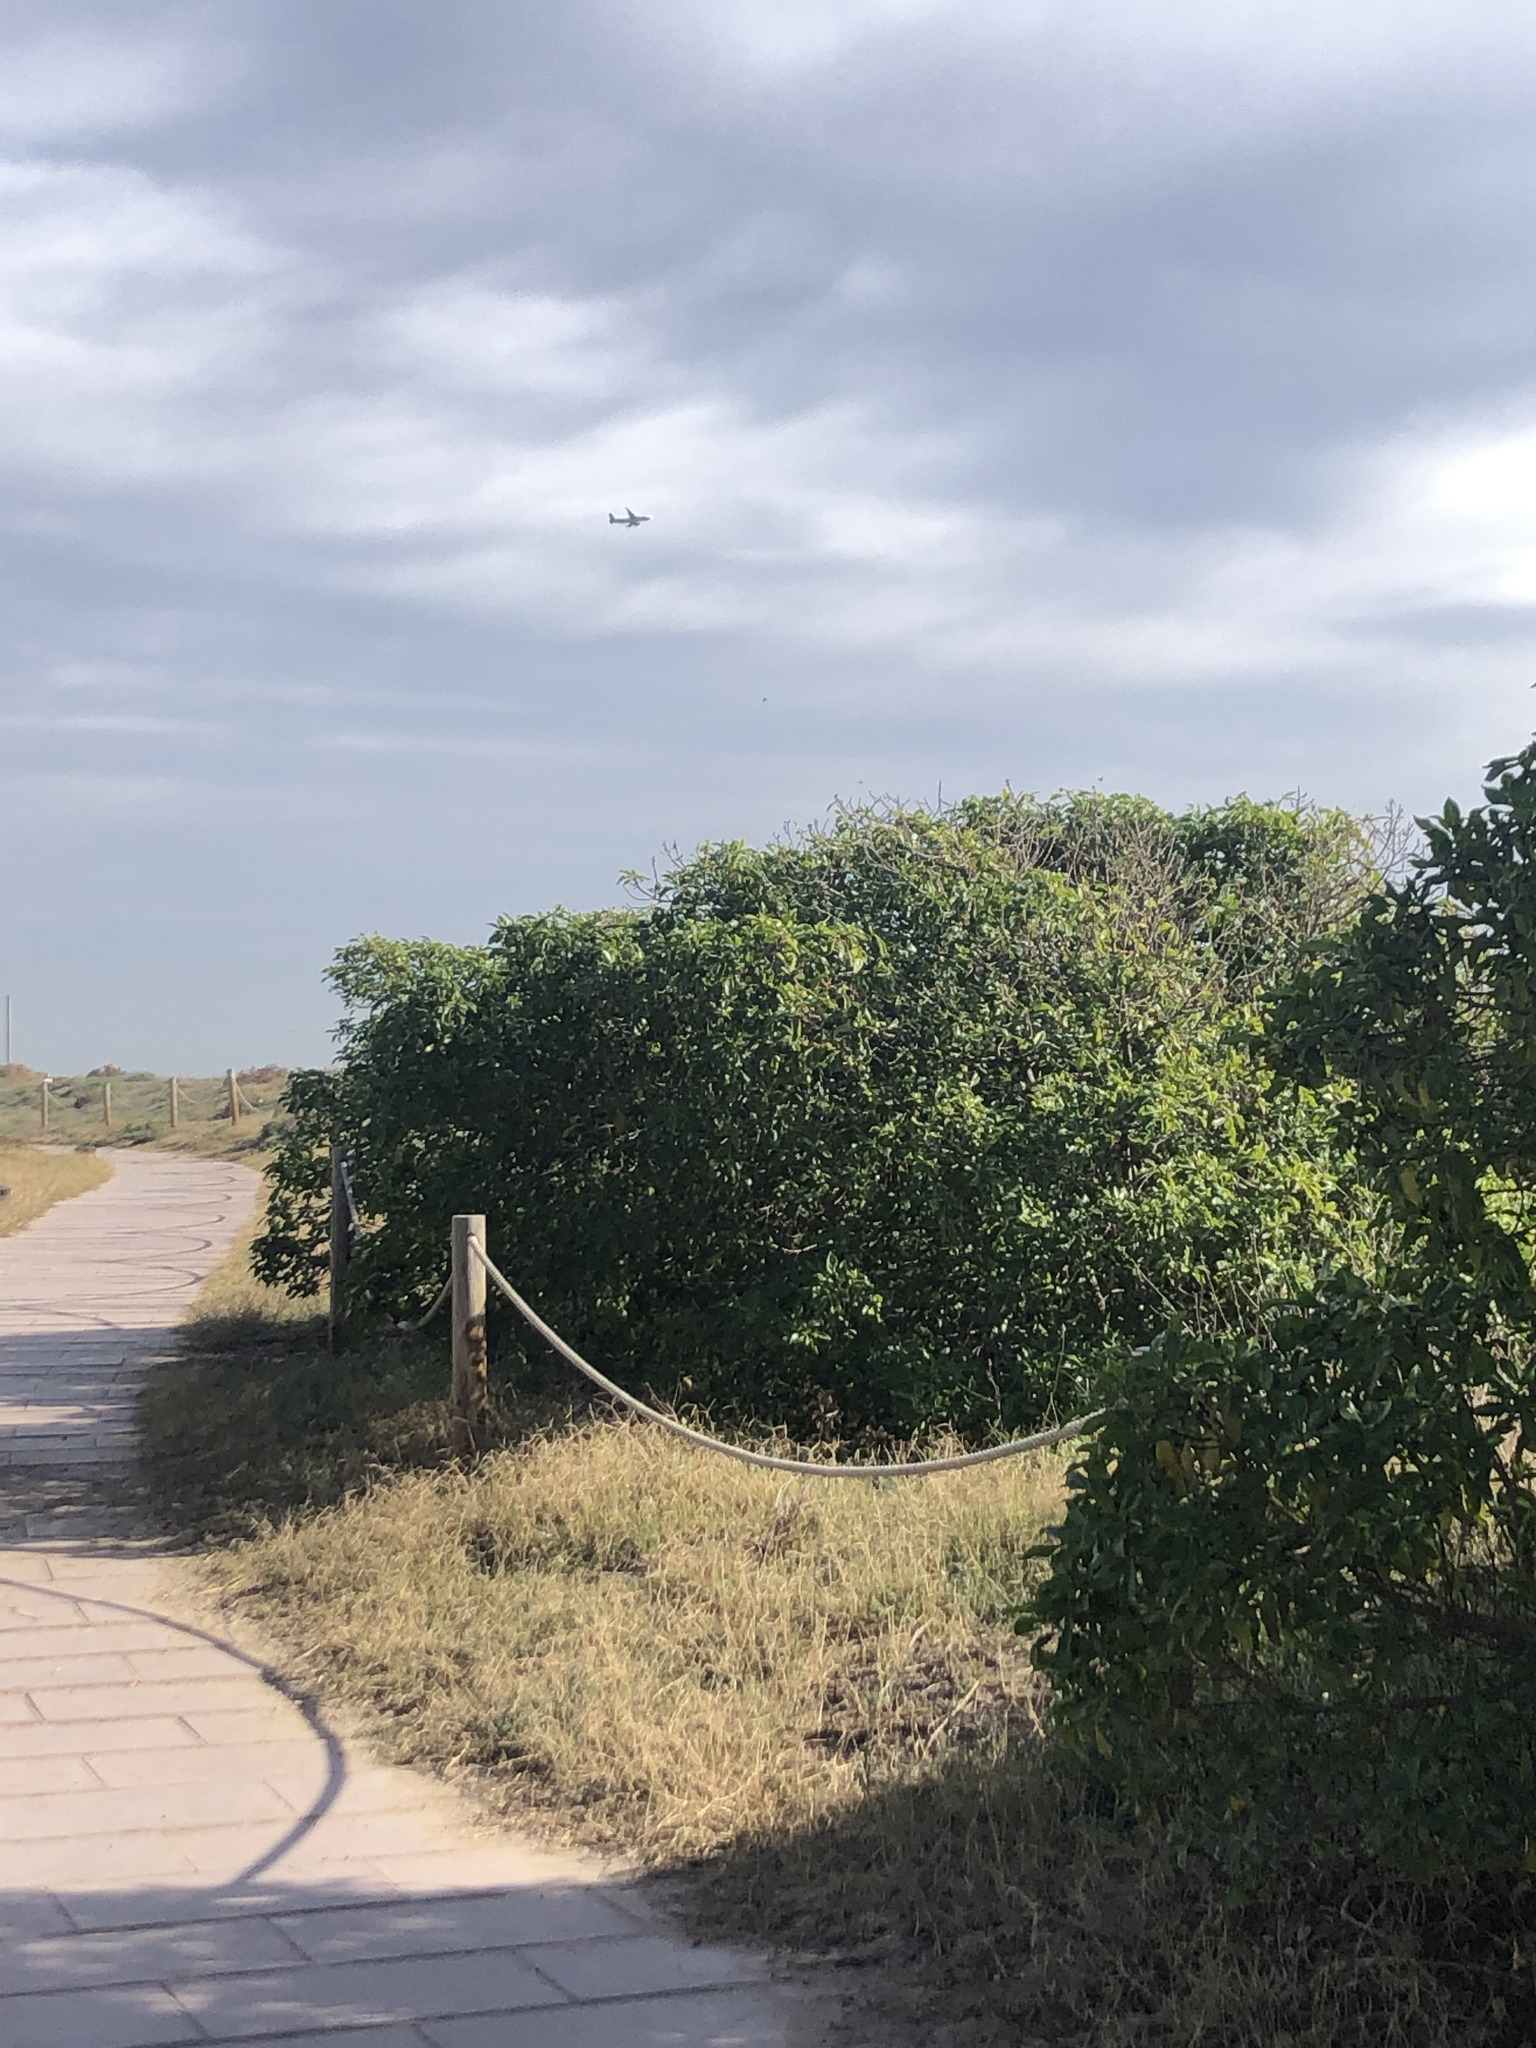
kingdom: Plantae
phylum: Tracheophyta
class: Magnoliopsida
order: Lamiales
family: Scrophulariaceae
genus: Myoporum
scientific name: Myoporum laetum
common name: Ngaio tree
